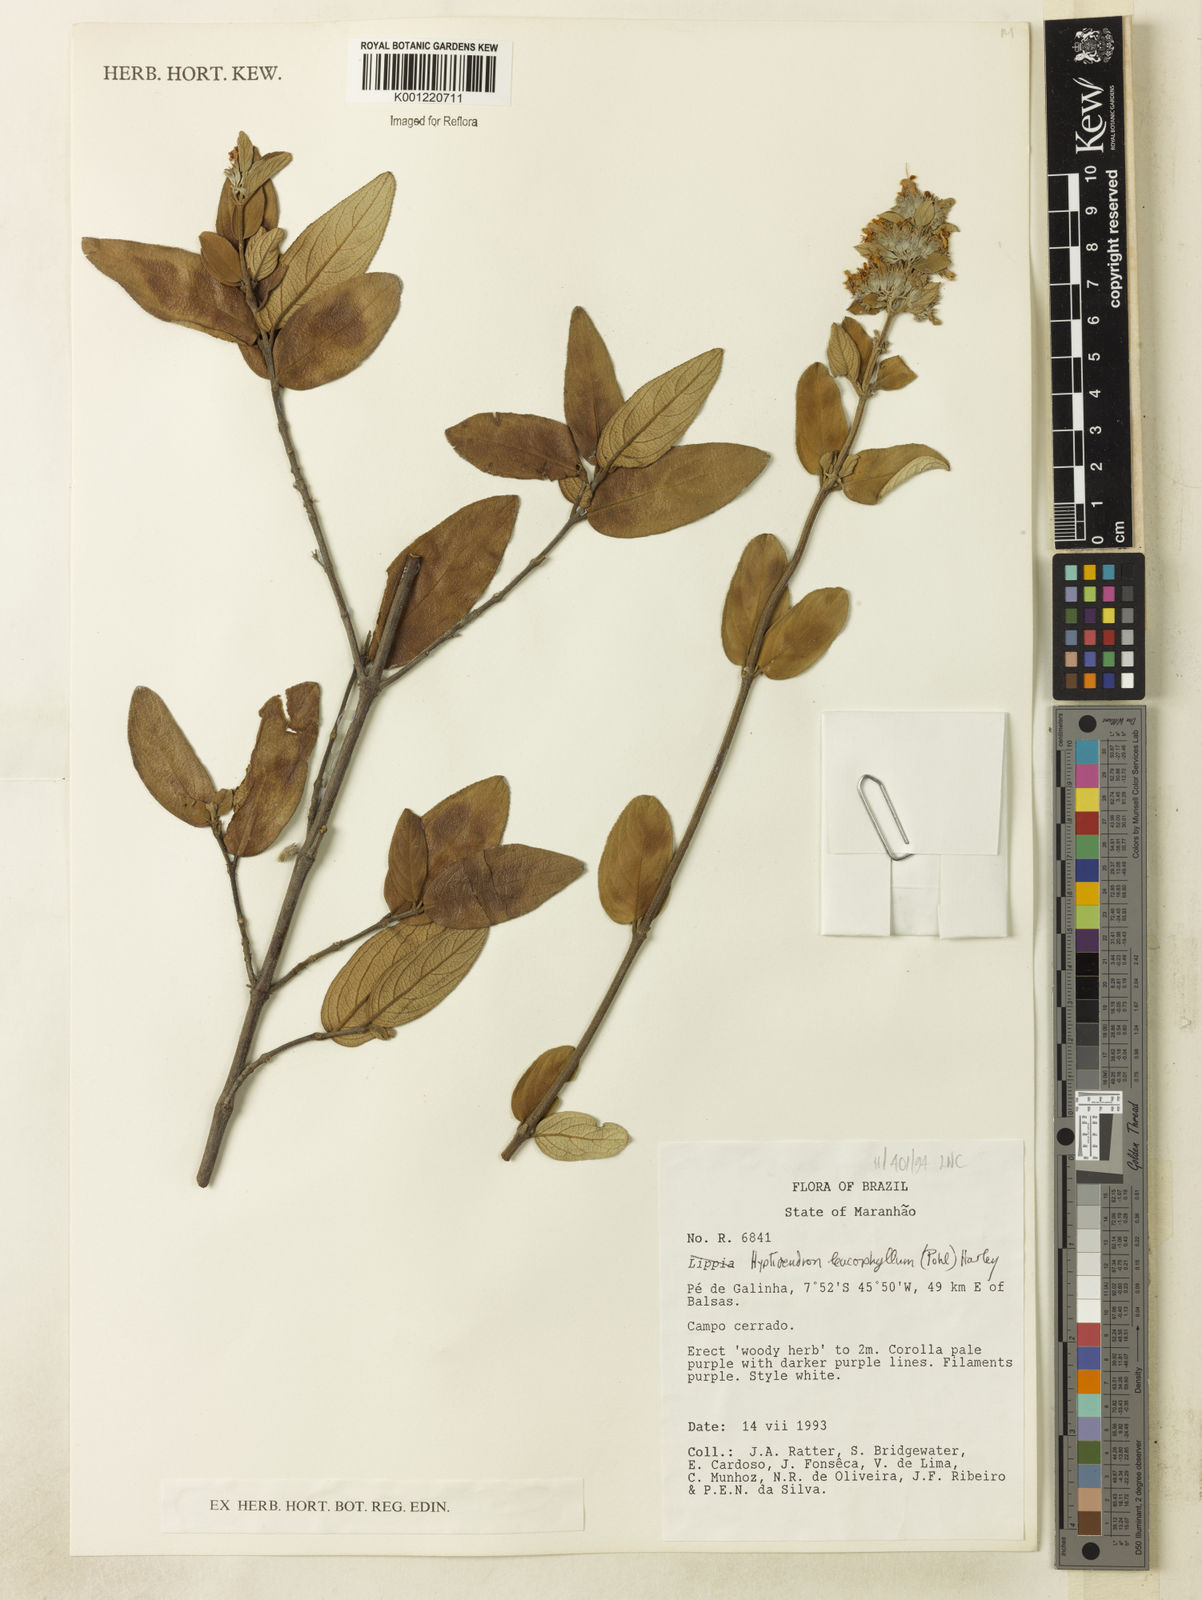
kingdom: Plantae
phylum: Tracheophyta
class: Magnoliopsida
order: Lamiales
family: Lamiaceae
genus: Hyptidendron
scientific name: Hyptidendron conspersum
